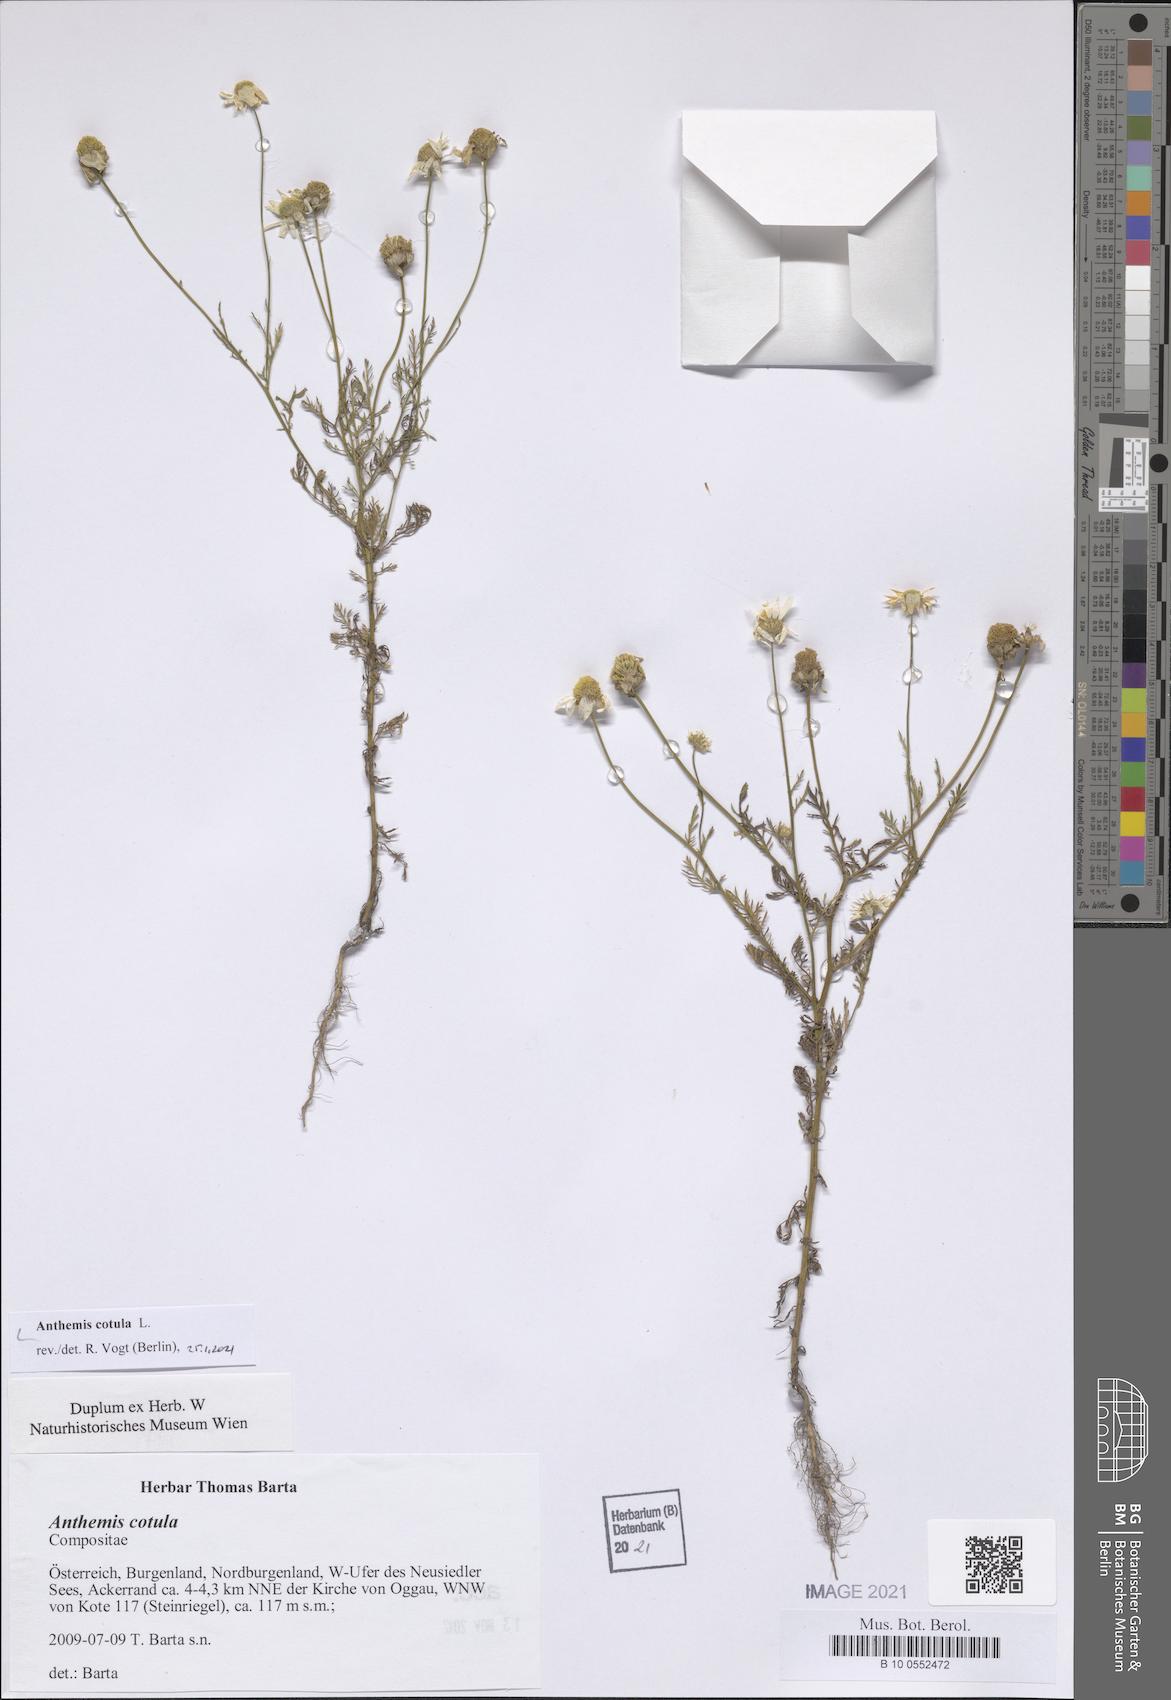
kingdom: Plantae
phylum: Tracheophyta
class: Magnoliopsida
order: Asterales
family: Asteraceae
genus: Anthemis
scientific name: Anthemis cotula
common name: Stinking chamomile
